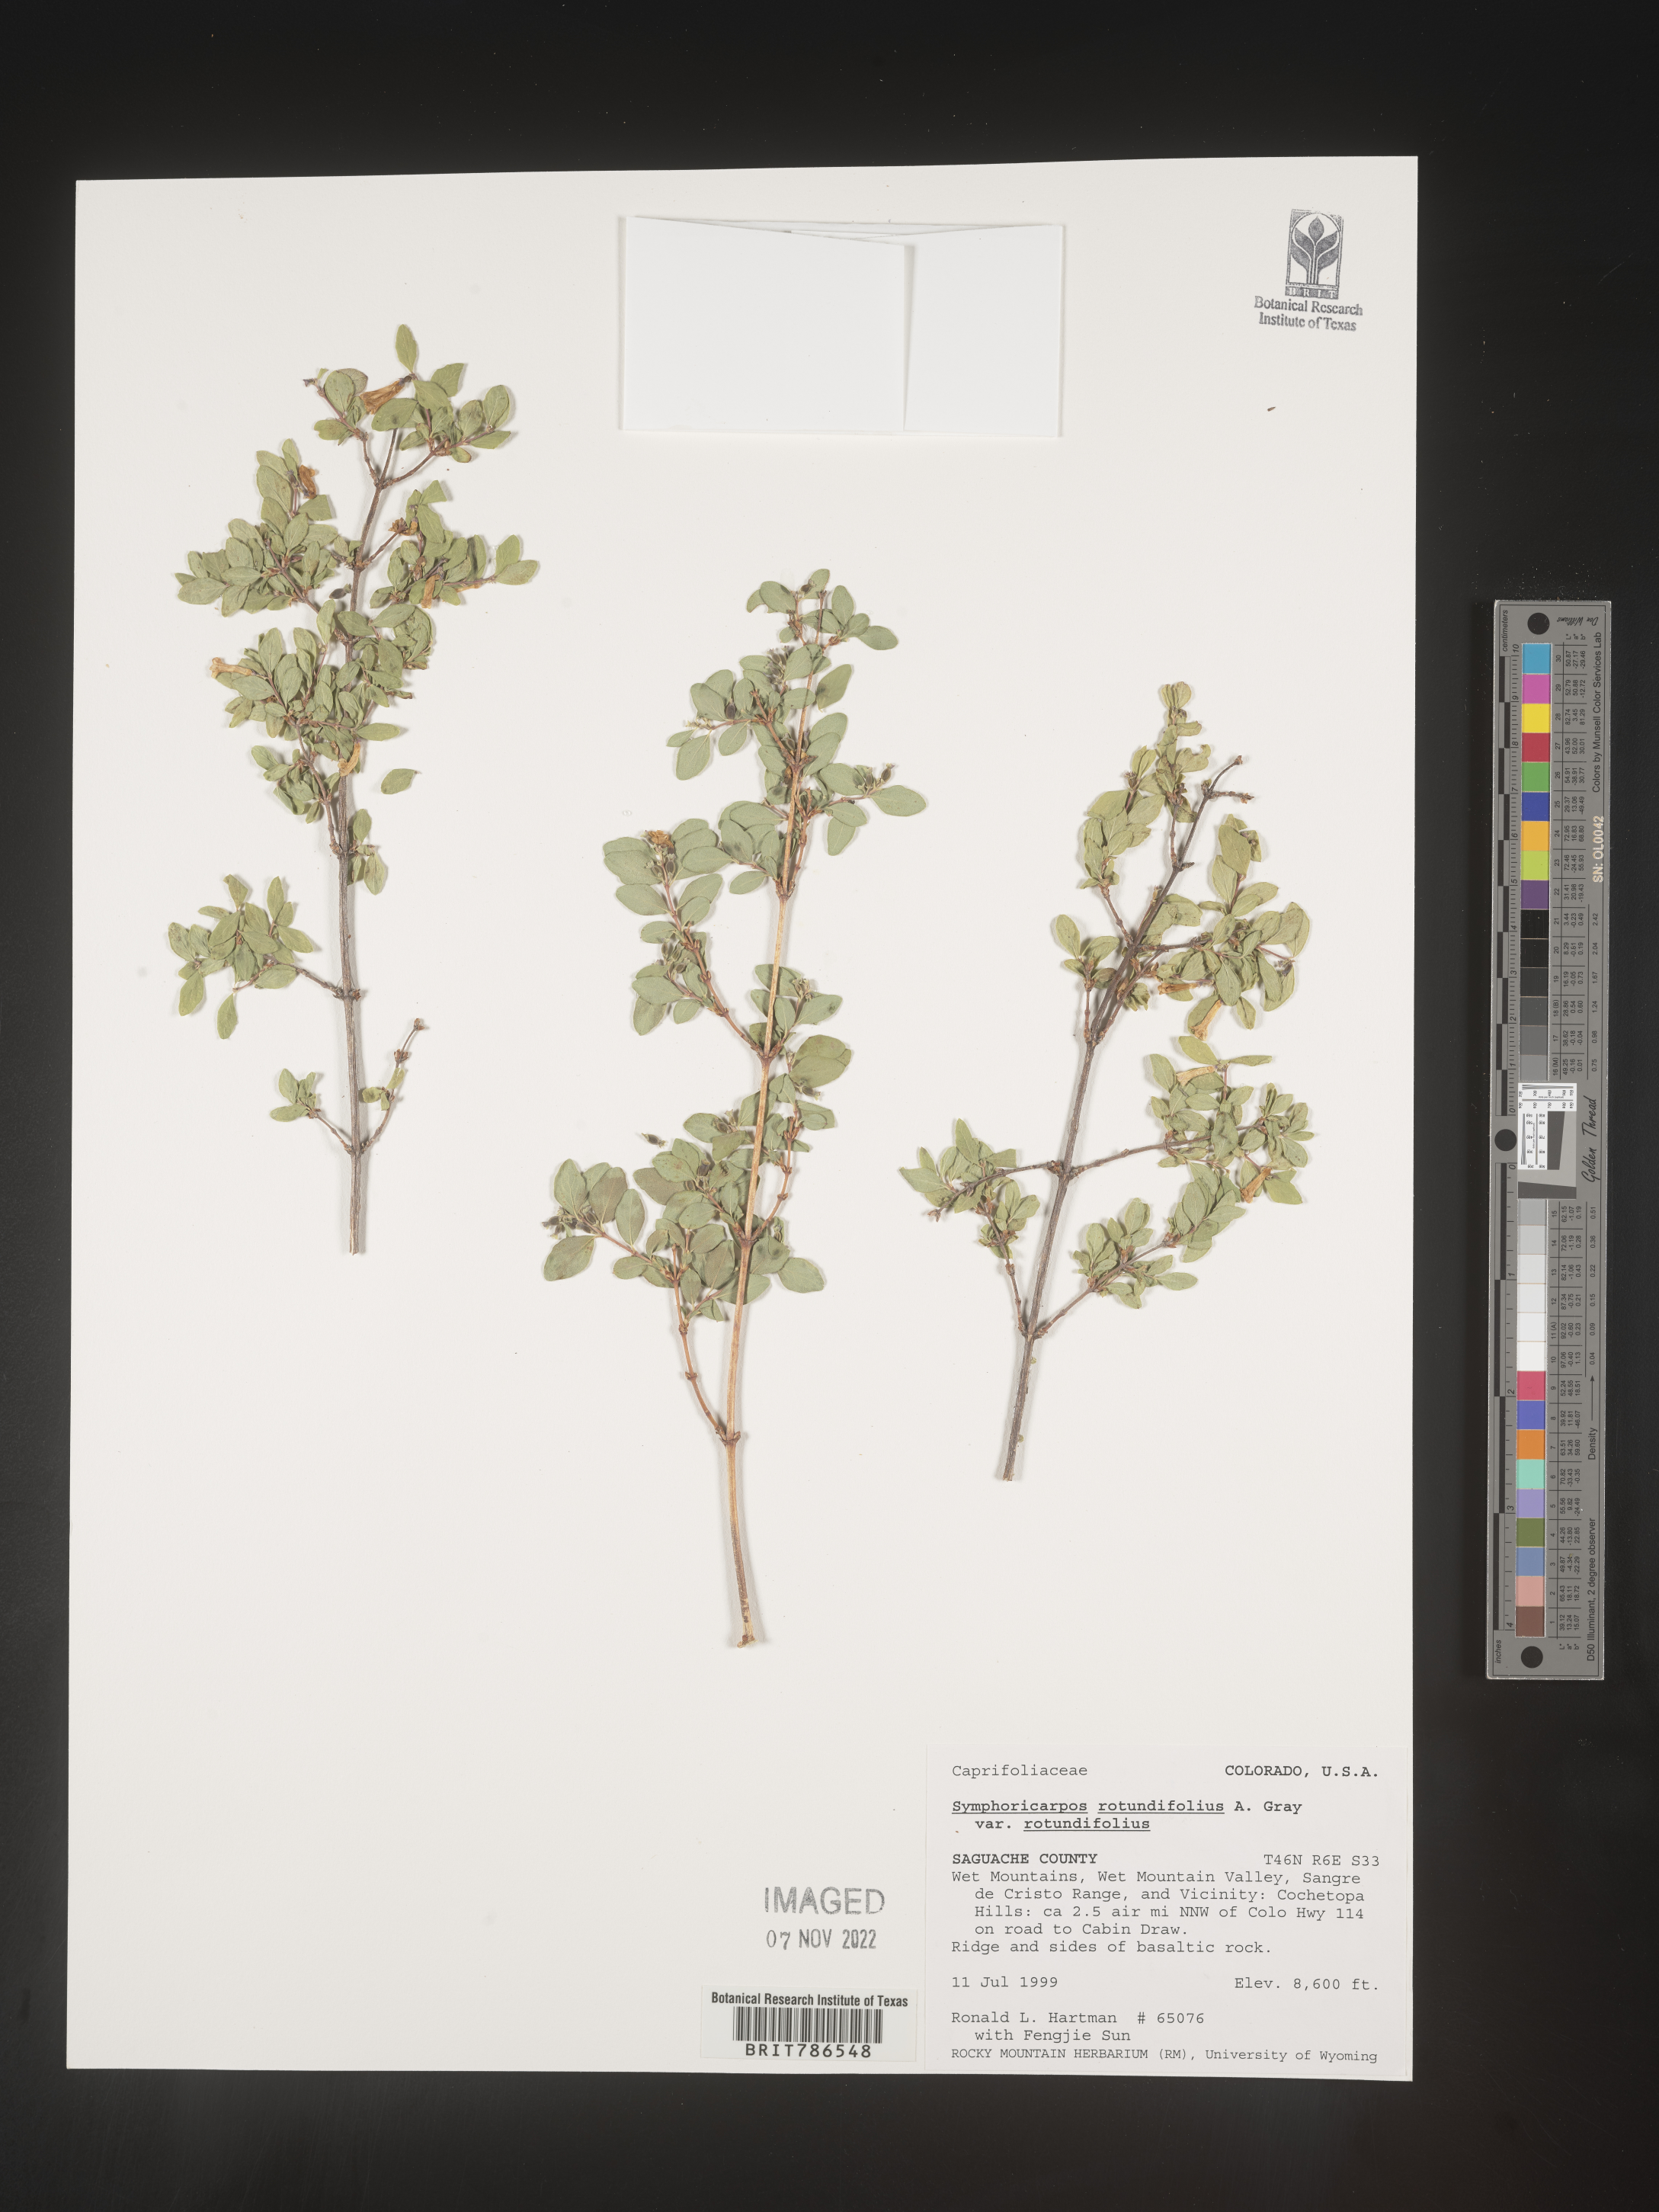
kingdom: Plantae
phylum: Tracheophyta
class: Magnoliopsida
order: Dipsacales
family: Caprifoliaceae
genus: Symphoricarpos
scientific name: Symphoricarpos
